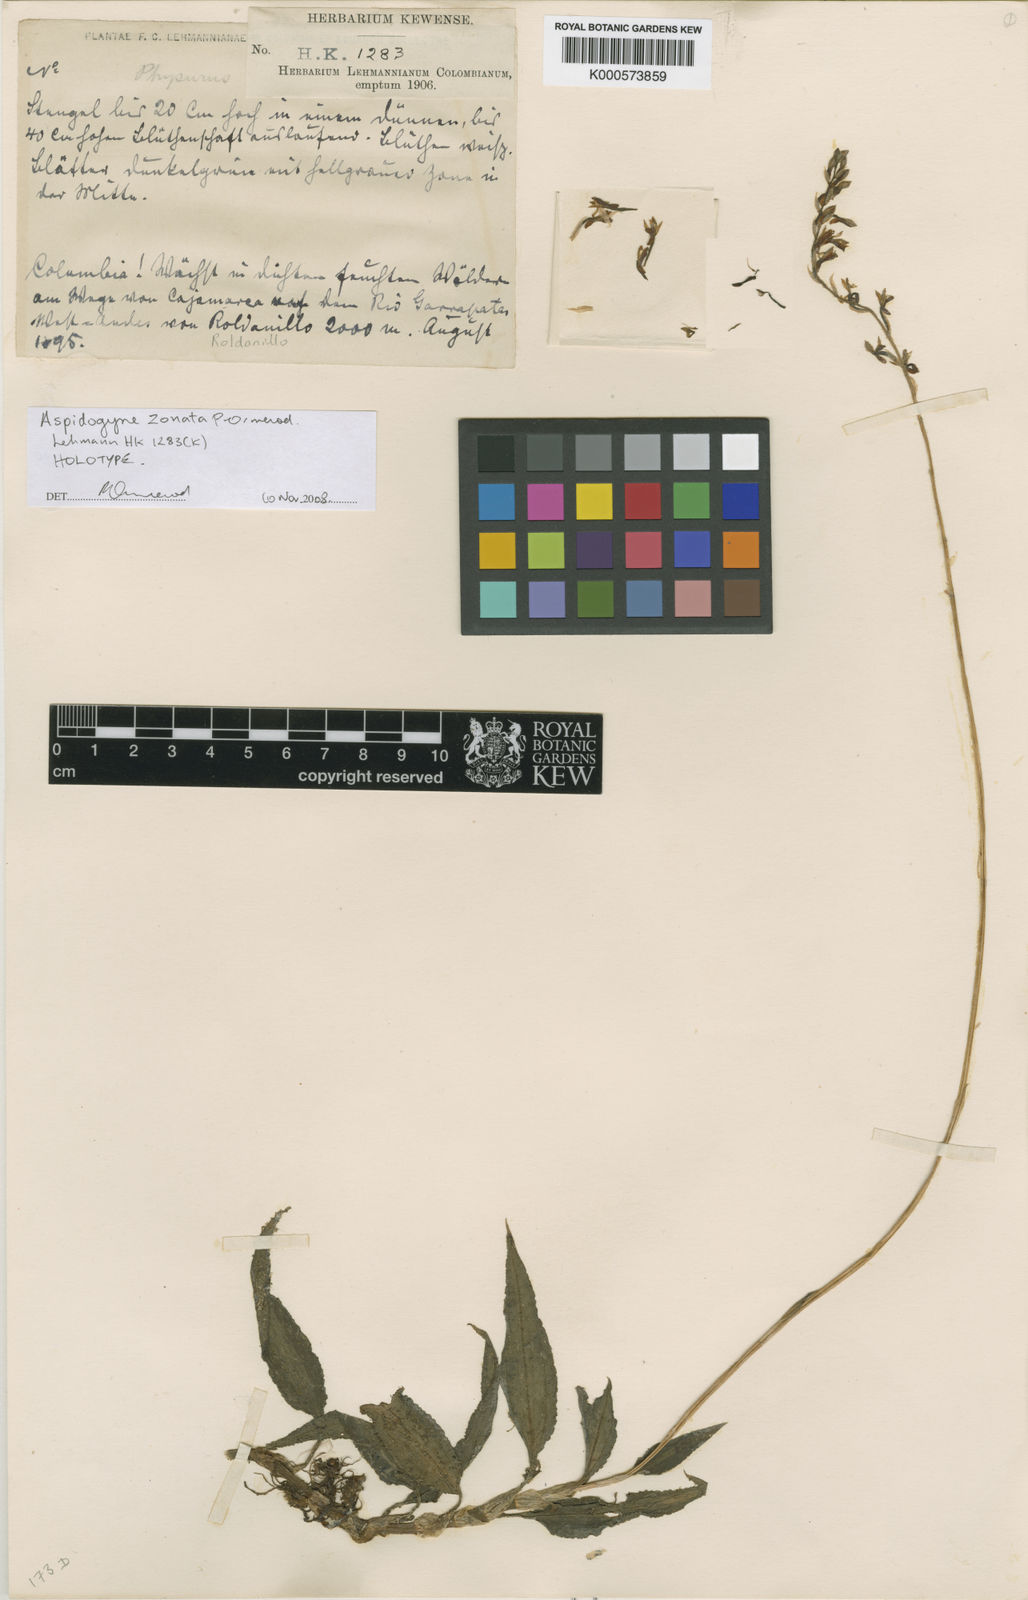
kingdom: Plantae
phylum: Tracheophyta
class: Liliopsida
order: Asparagales
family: Orchidaceae
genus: Aspidogyne
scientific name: Aspidogyne zonata
